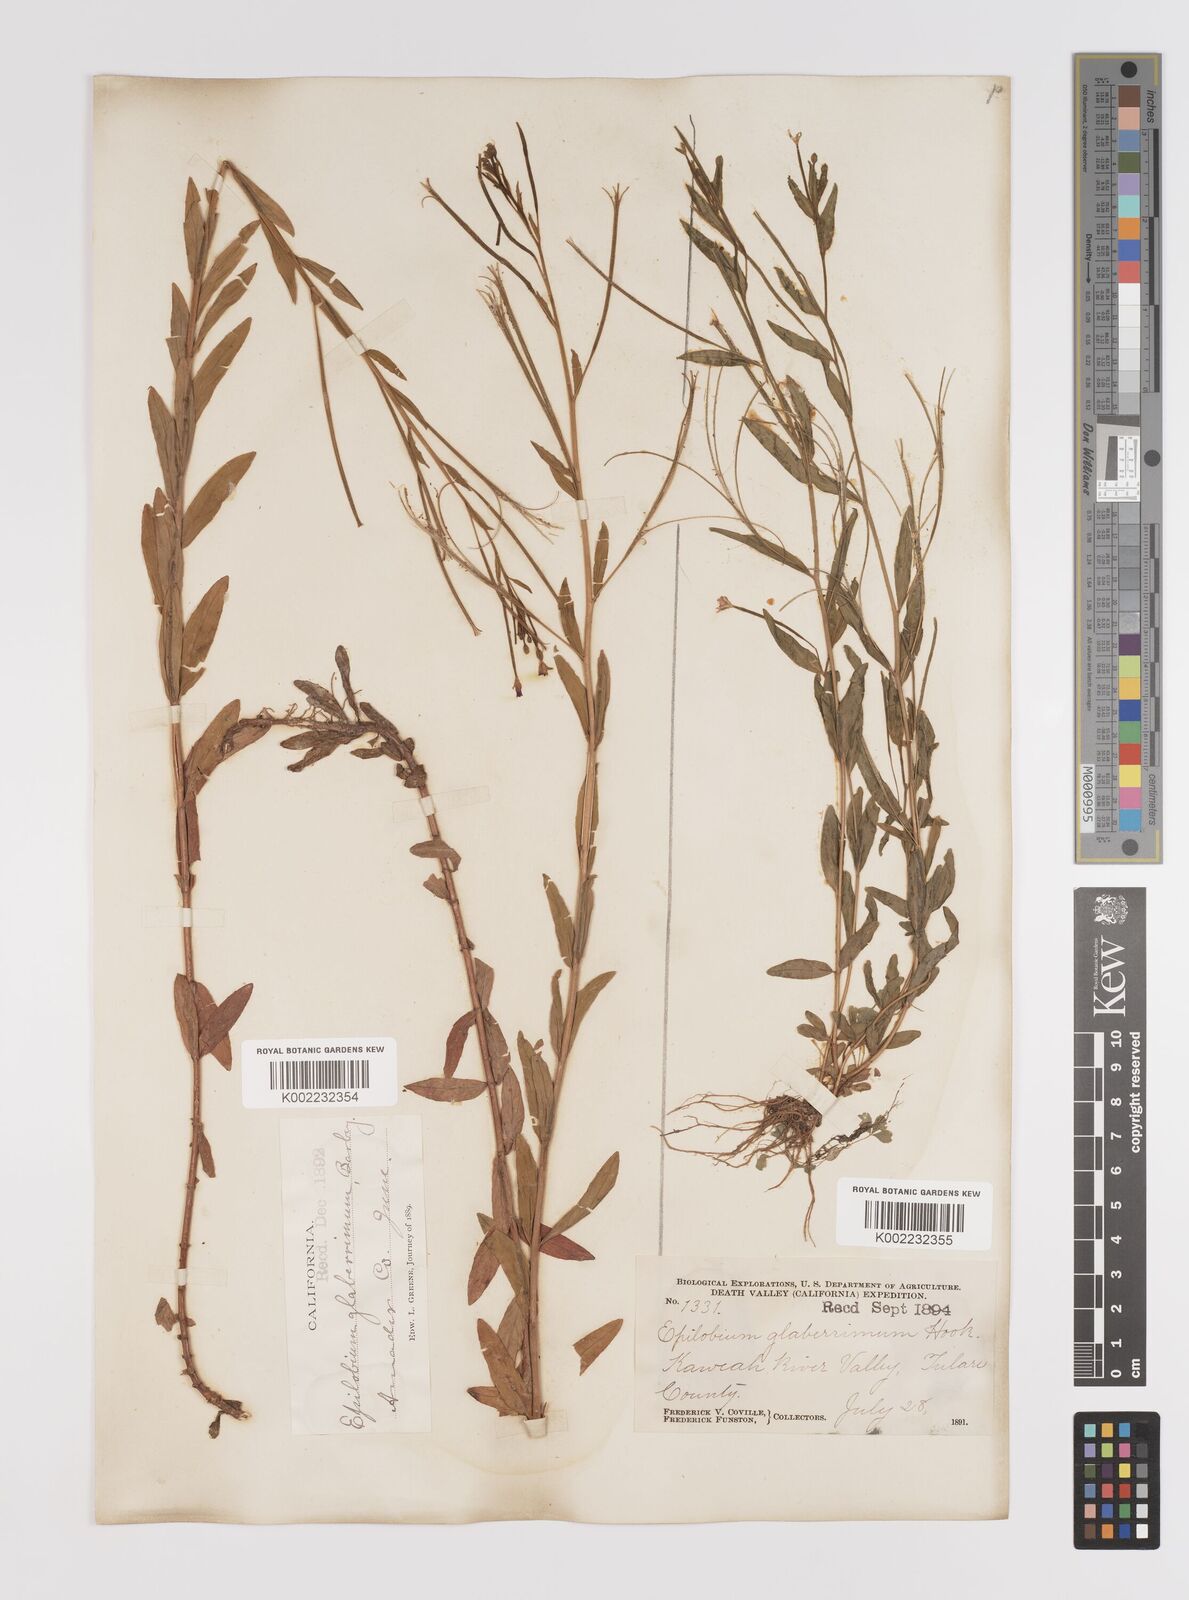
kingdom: Plantae
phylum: Tracheophyta
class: Magnoliopsida
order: Myrtales
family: Onagraceae
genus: Epilobium
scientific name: Epilobium glaberrimum
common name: Glaucous willowherb
